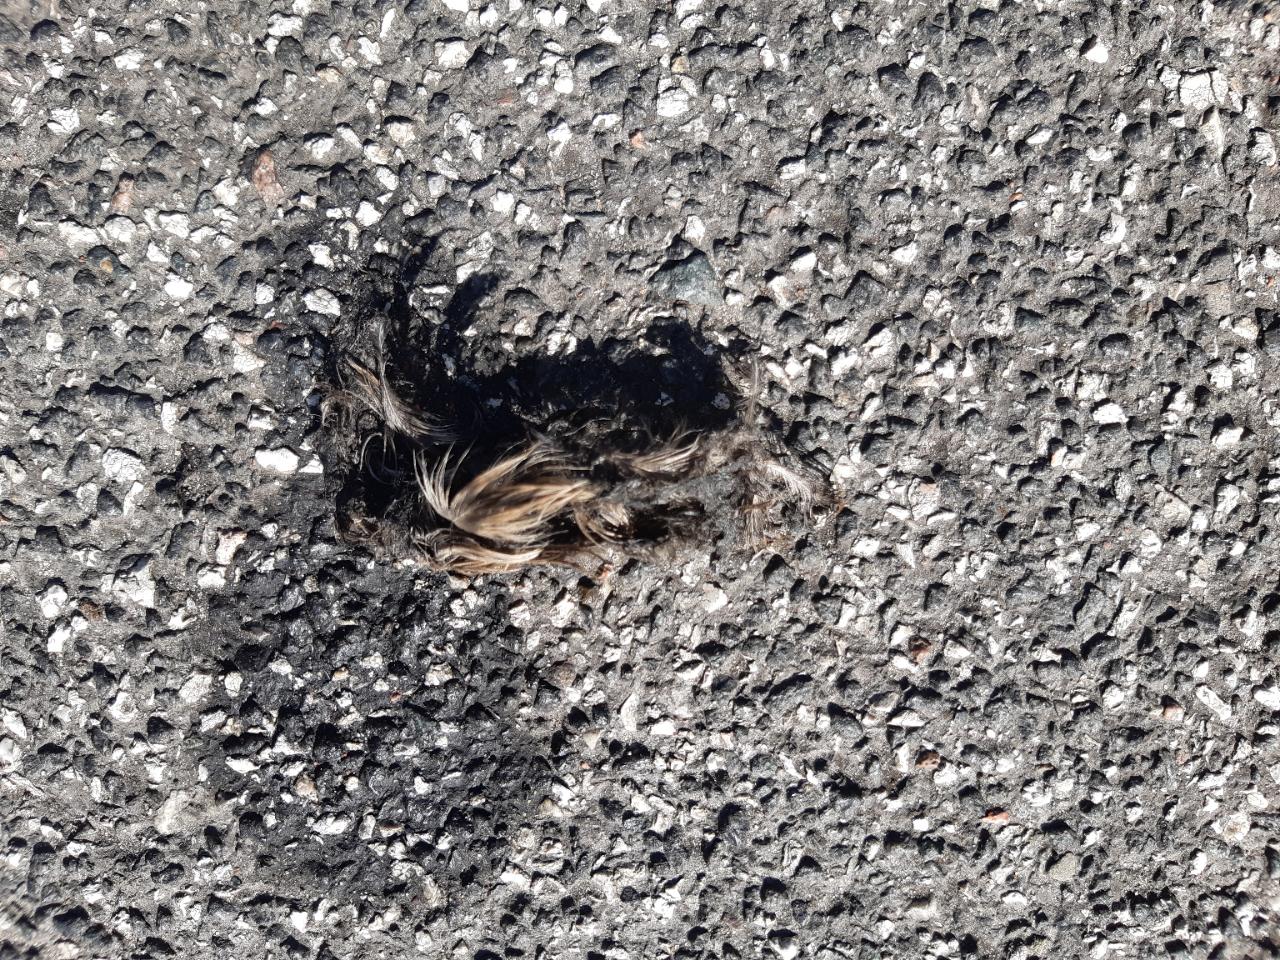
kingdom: Animalia
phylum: Chordata
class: Aves
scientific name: Aves
